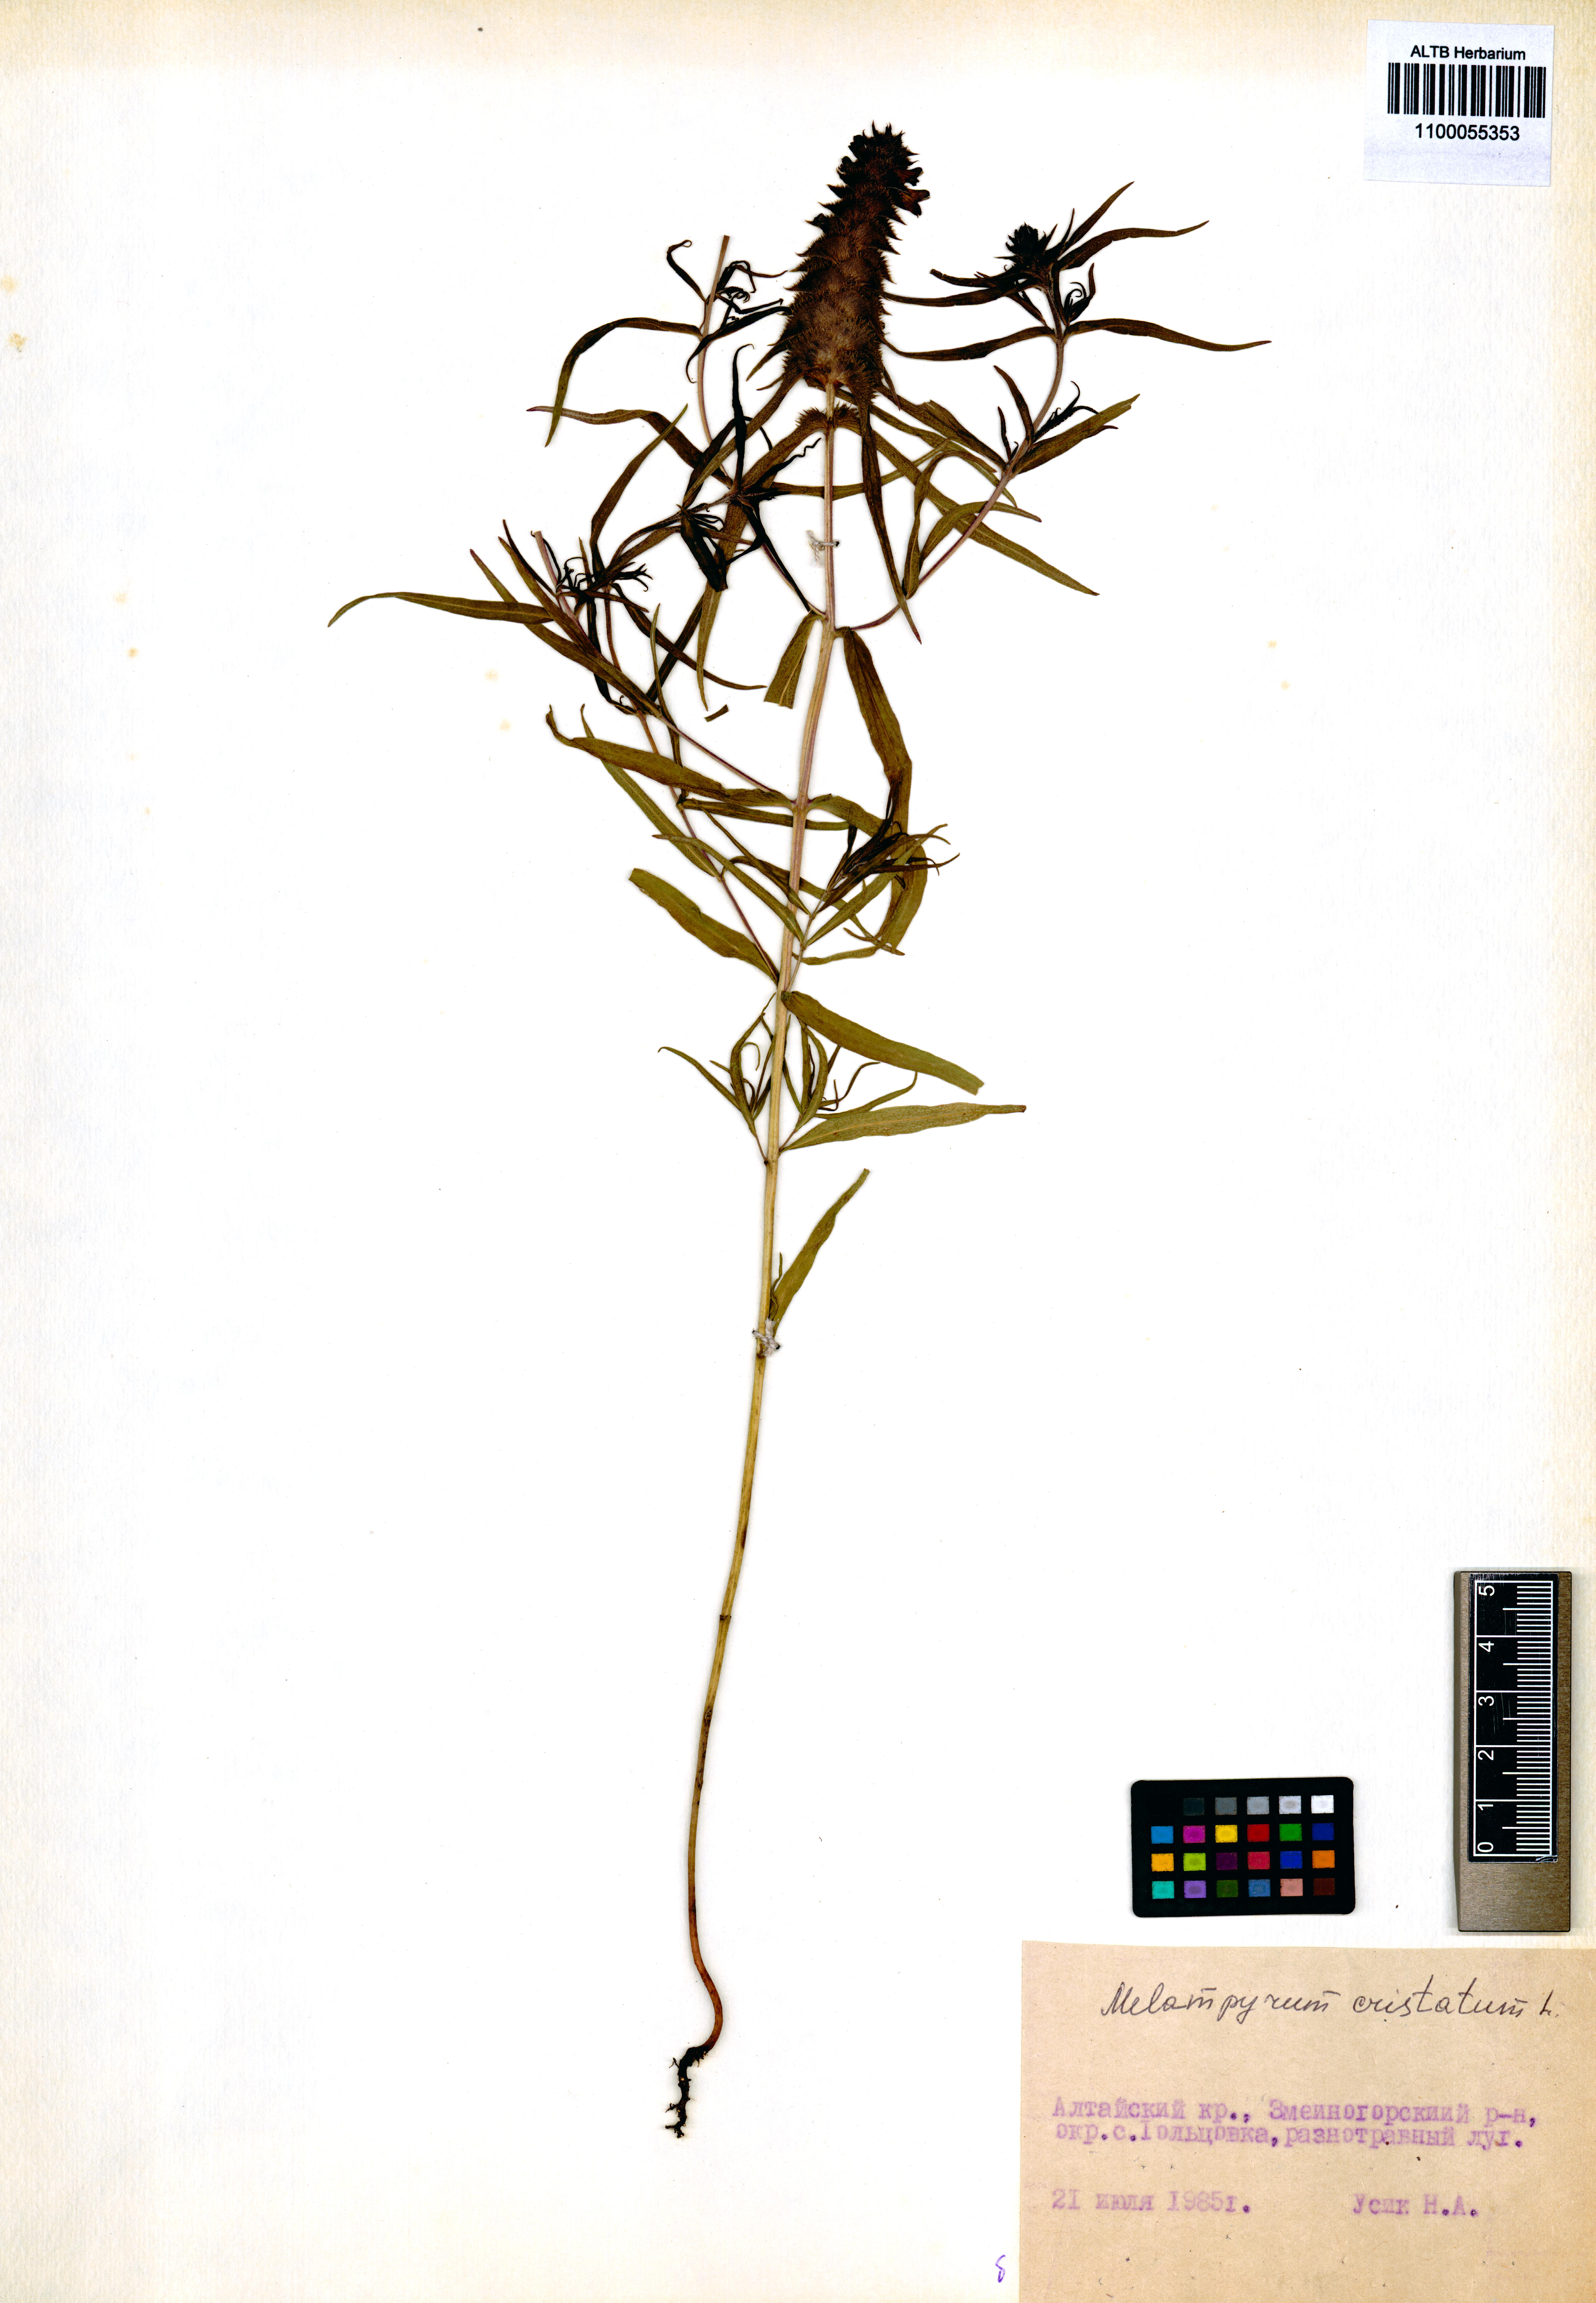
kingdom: Plantae
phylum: Tracheophyta
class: Magnoliopsida
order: Lamiales
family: Orobanchaceae
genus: Melampyrum
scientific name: Melampyrum cristatum
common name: Crested cow-wheat
